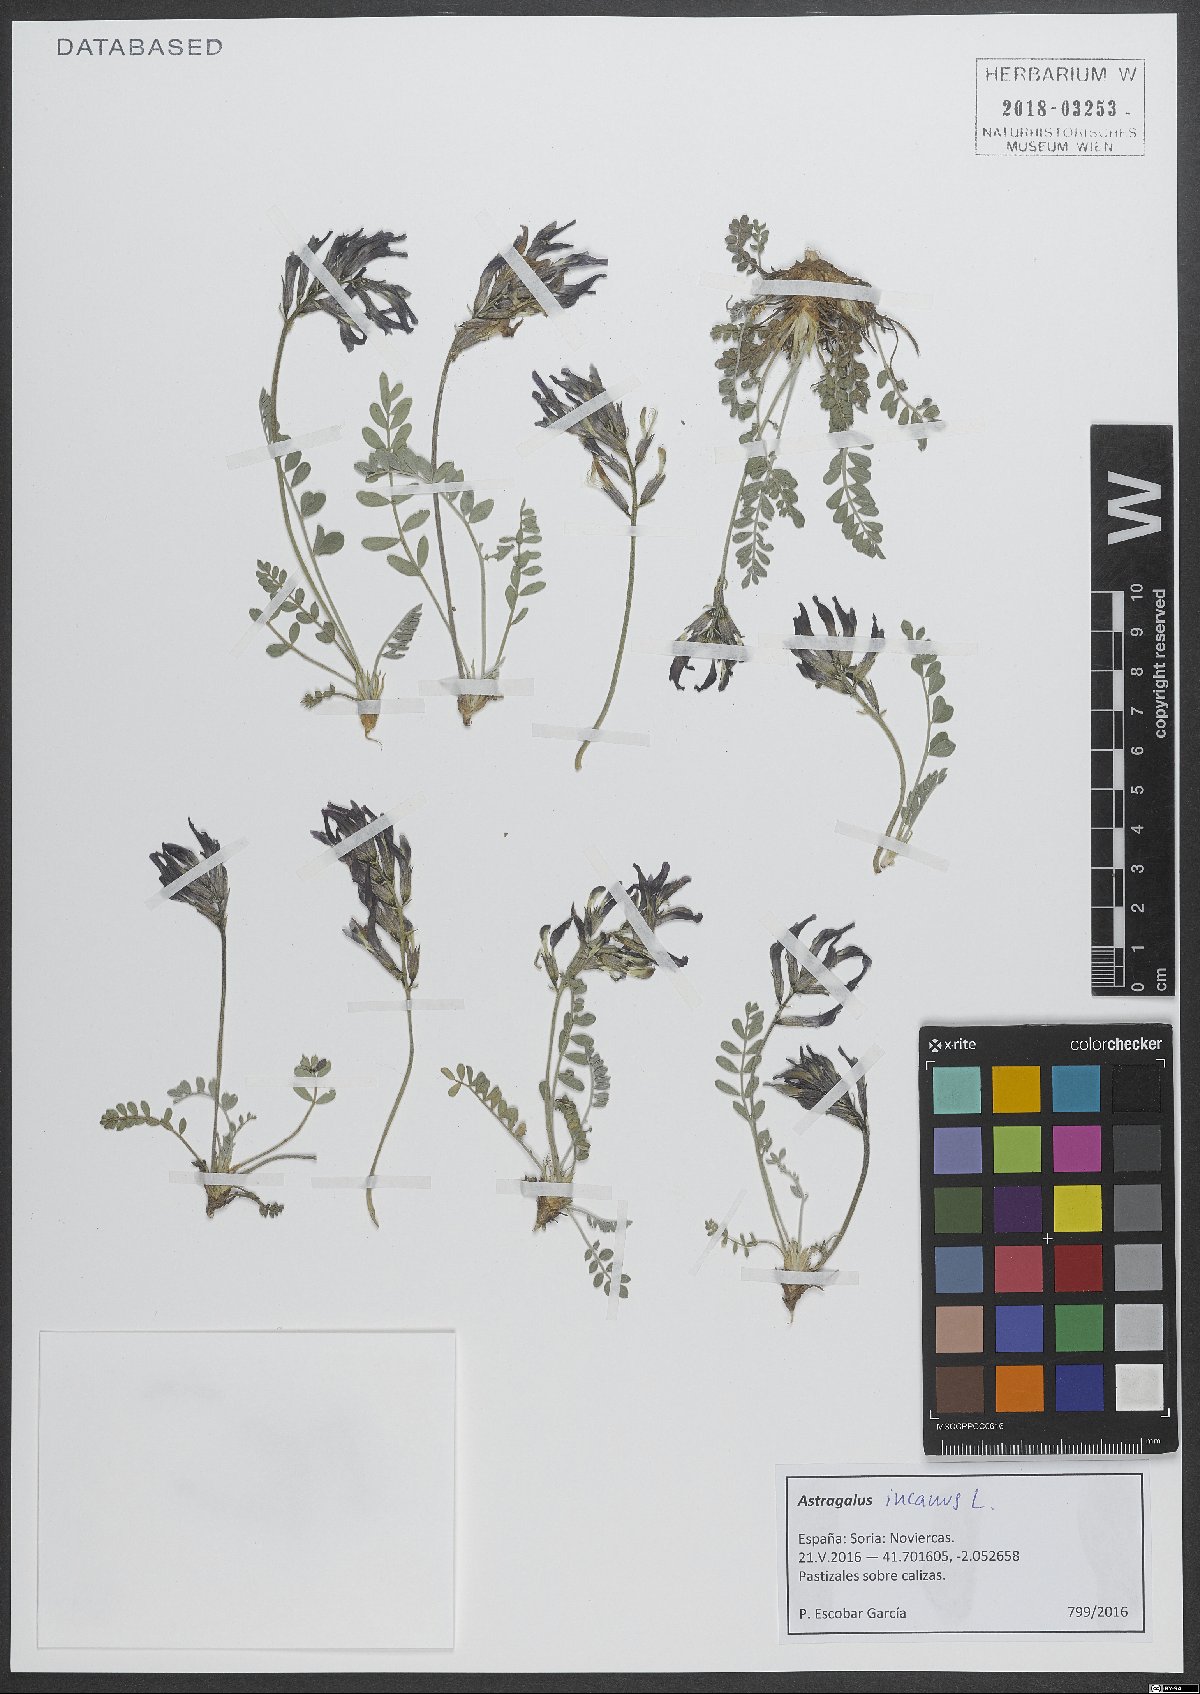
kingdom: Plantae
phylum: Tracheophyta
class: Magnoliopsida
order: Fabales
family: Fabaceae
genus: Astragalus
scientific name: Astragalus incanus
